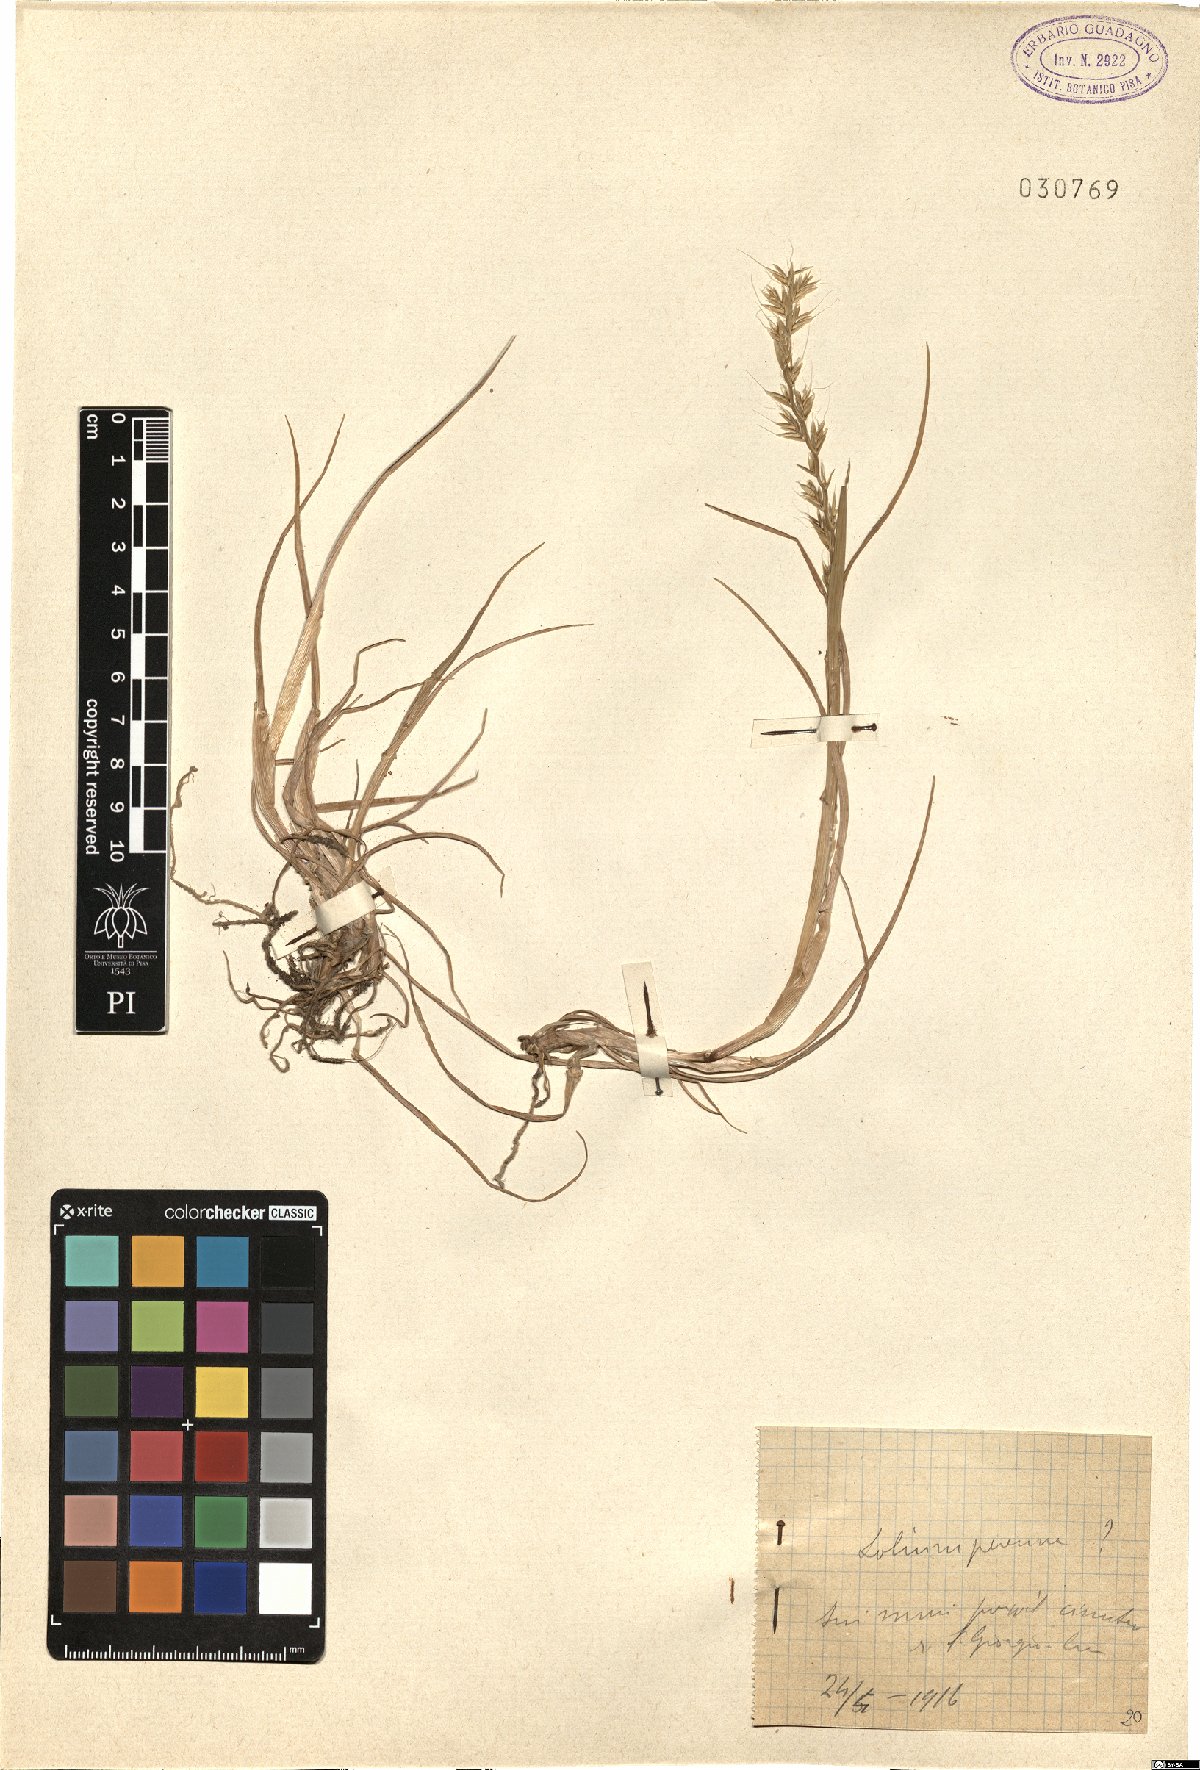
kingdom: Plantae
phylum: Tracheophyta
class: Liliopsida
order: Poales
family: Poaceae
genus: Lolium
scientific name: Lolium perenne
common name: Perennial ryegrass
